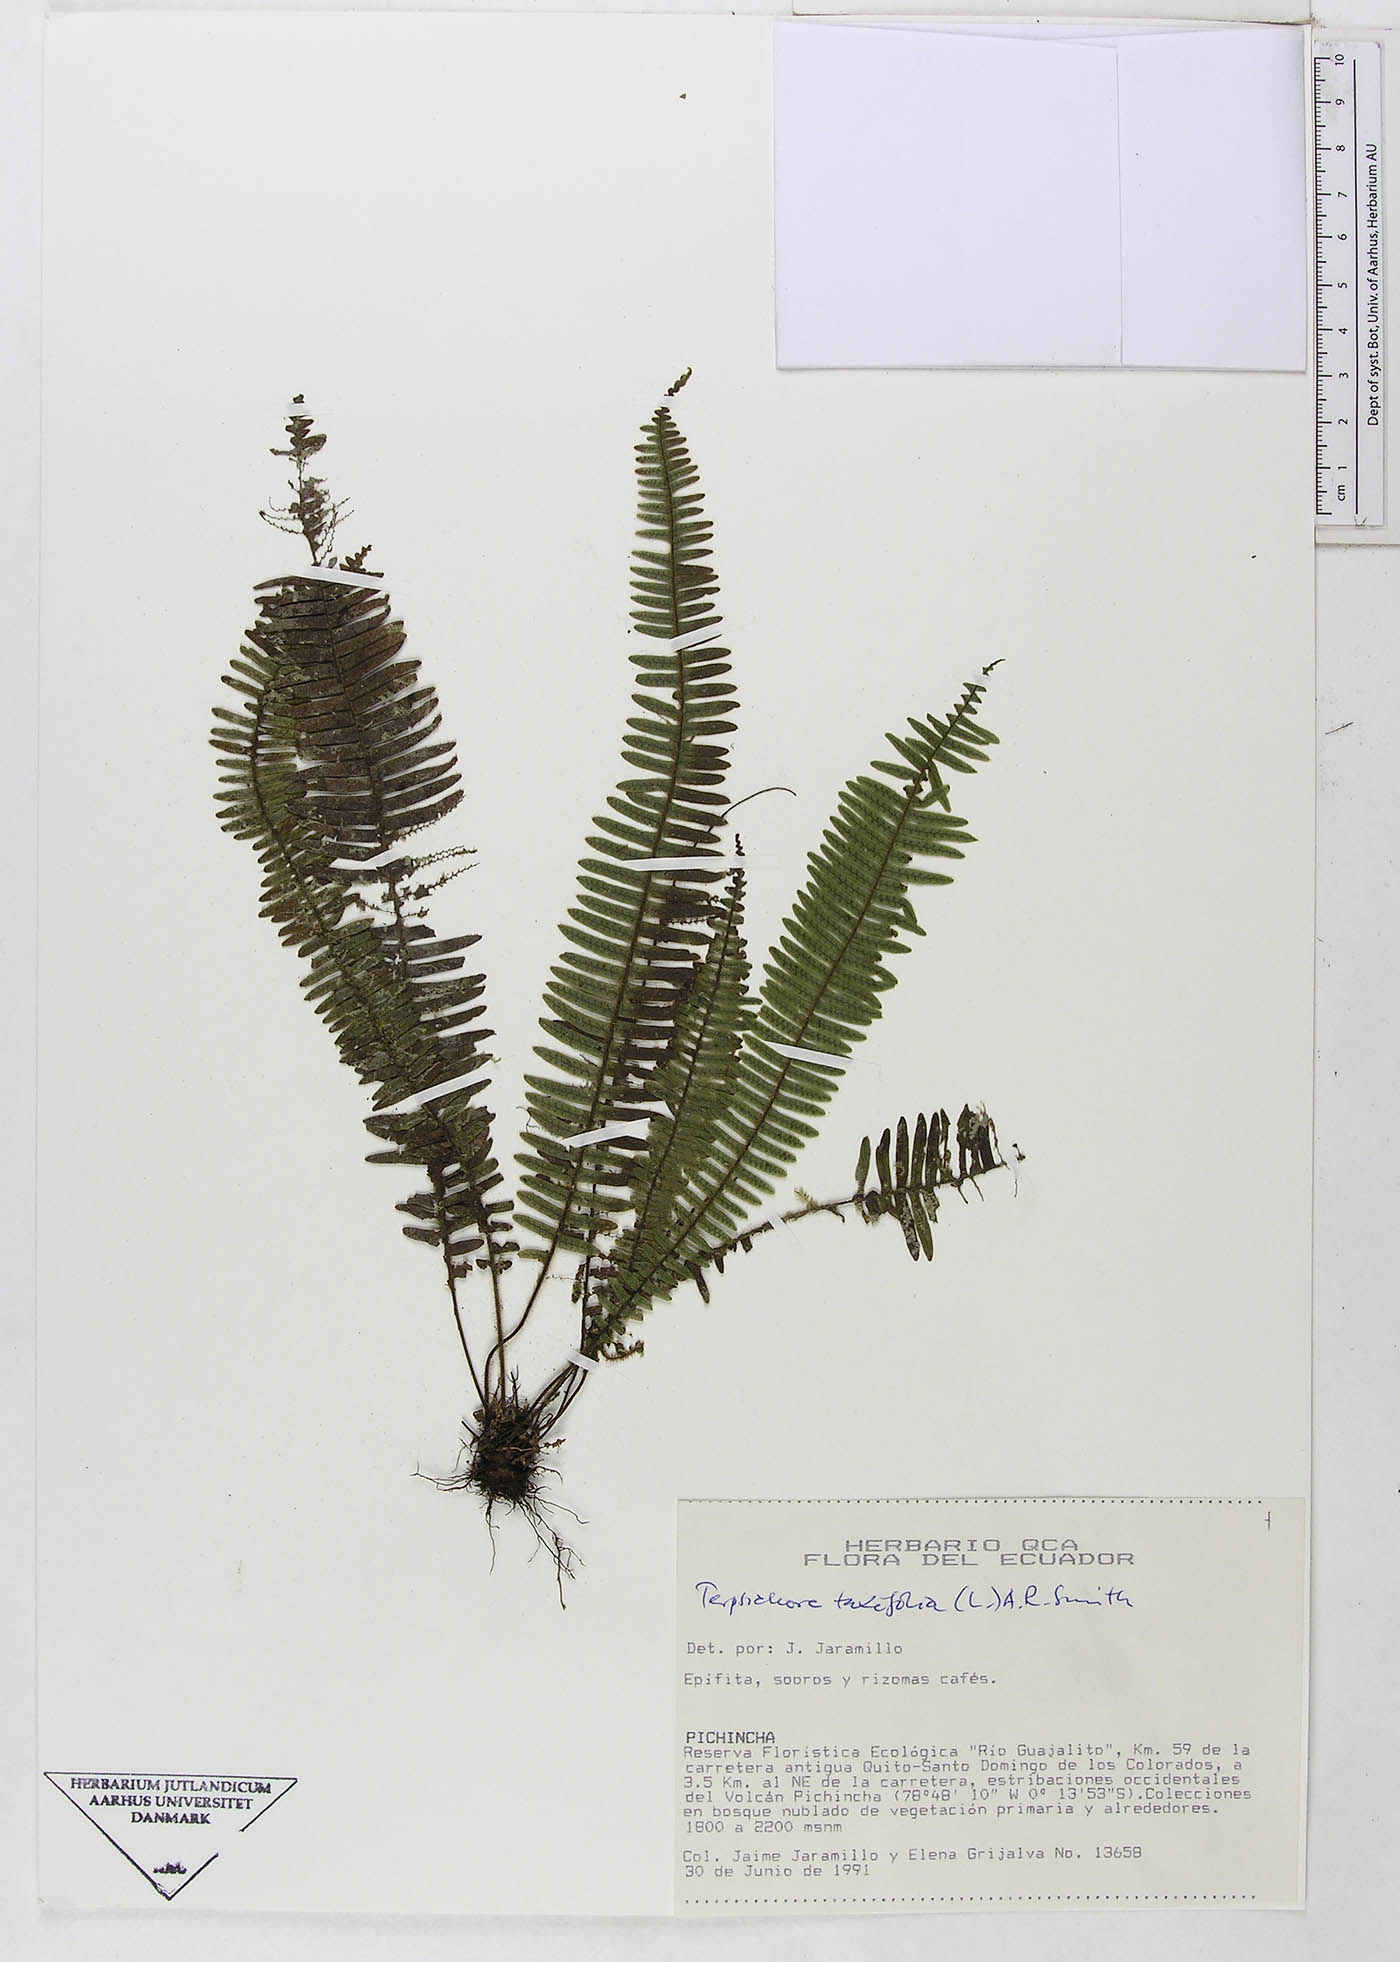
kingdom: Plantae
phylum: Tracheophyta
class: Polypodiopsida
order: Polypodiales
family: Polypodiaceae
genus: Mycopteris
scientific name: Mycopteris taxifolia
